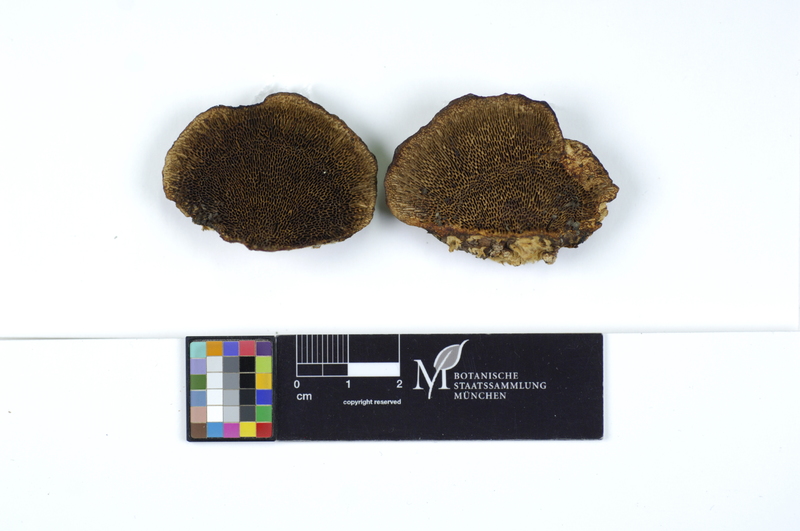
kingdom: Plantae
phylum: Tracheophyta
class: Magnoliopsida
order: Fagales
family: Betulaceae
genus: Betula
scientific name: Betula
